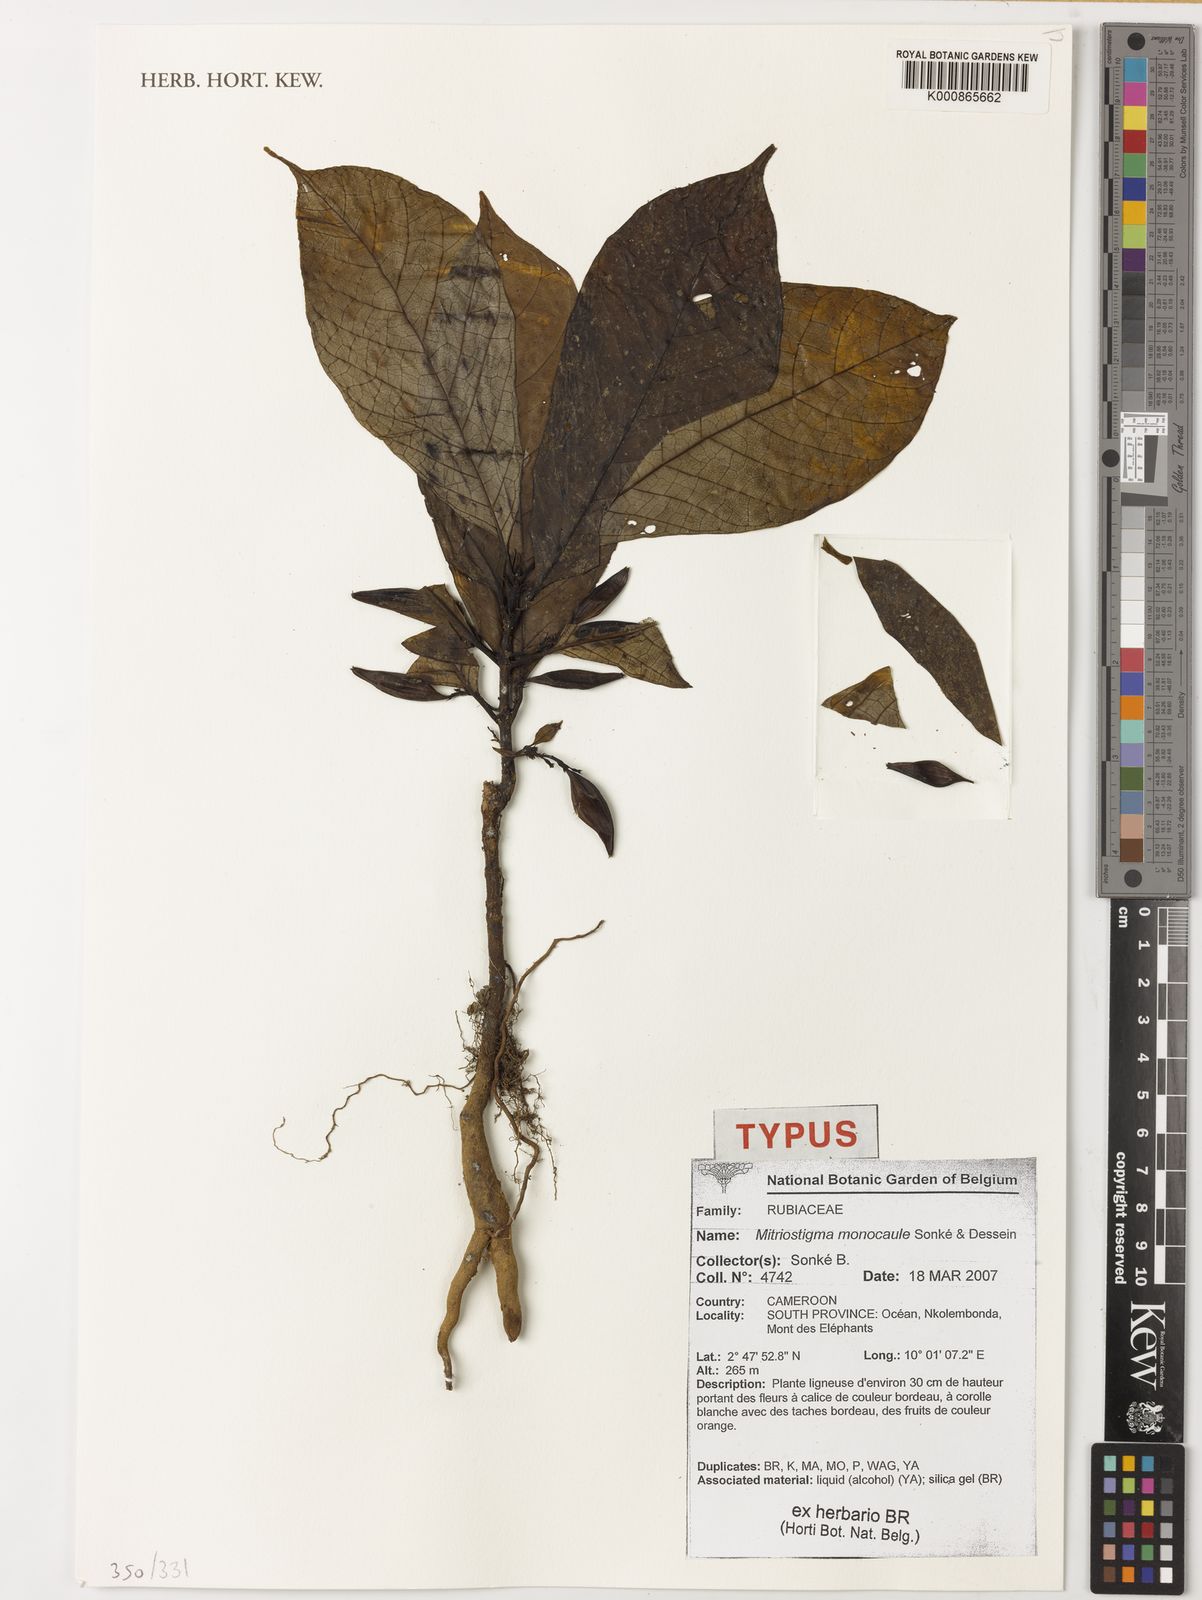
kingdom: Plantae
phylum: Tracheophyta
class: Magnoliopsida
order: Gentianales
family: Rubiaceae
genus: Mitriostigma
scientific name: Mitriostigma
